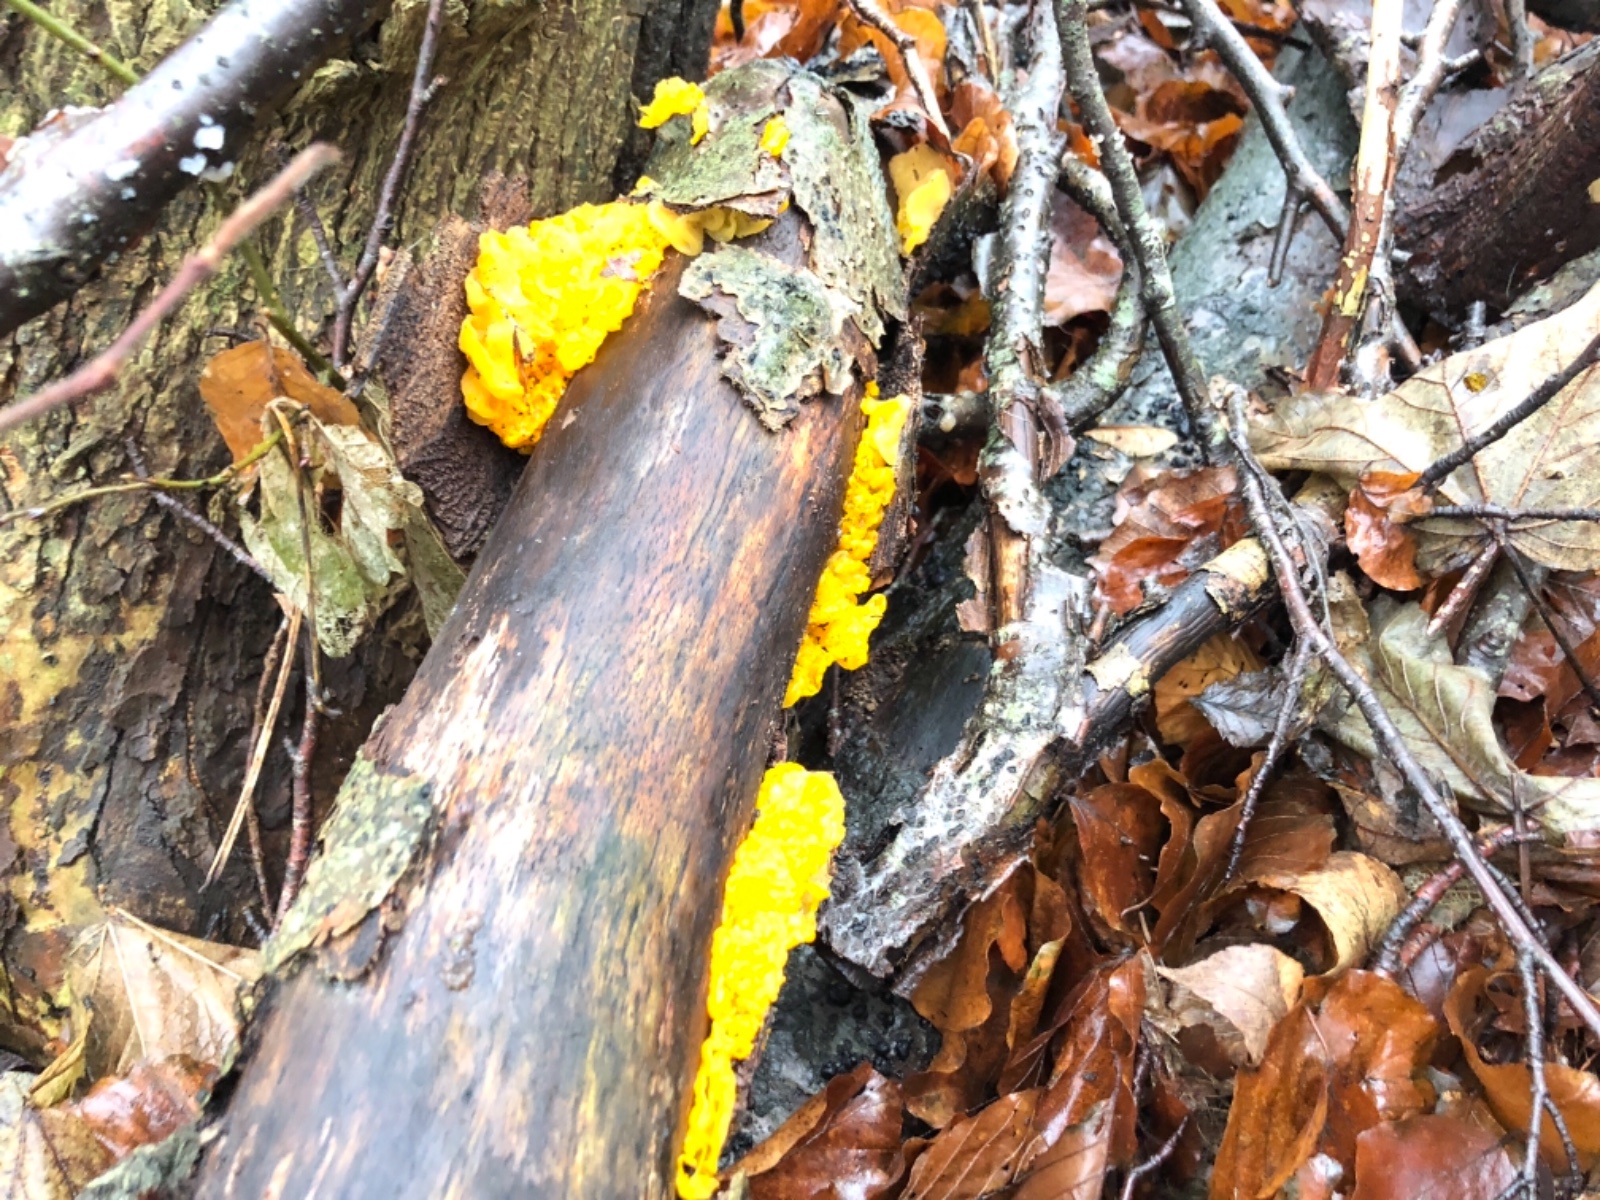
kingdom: Fungi
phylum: Basidiomycota
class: Tremellomycetes
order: Tremellales
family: Tremellaceae
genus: Tremella
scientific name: Tremella mesenterica
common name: gul bævresvamp
